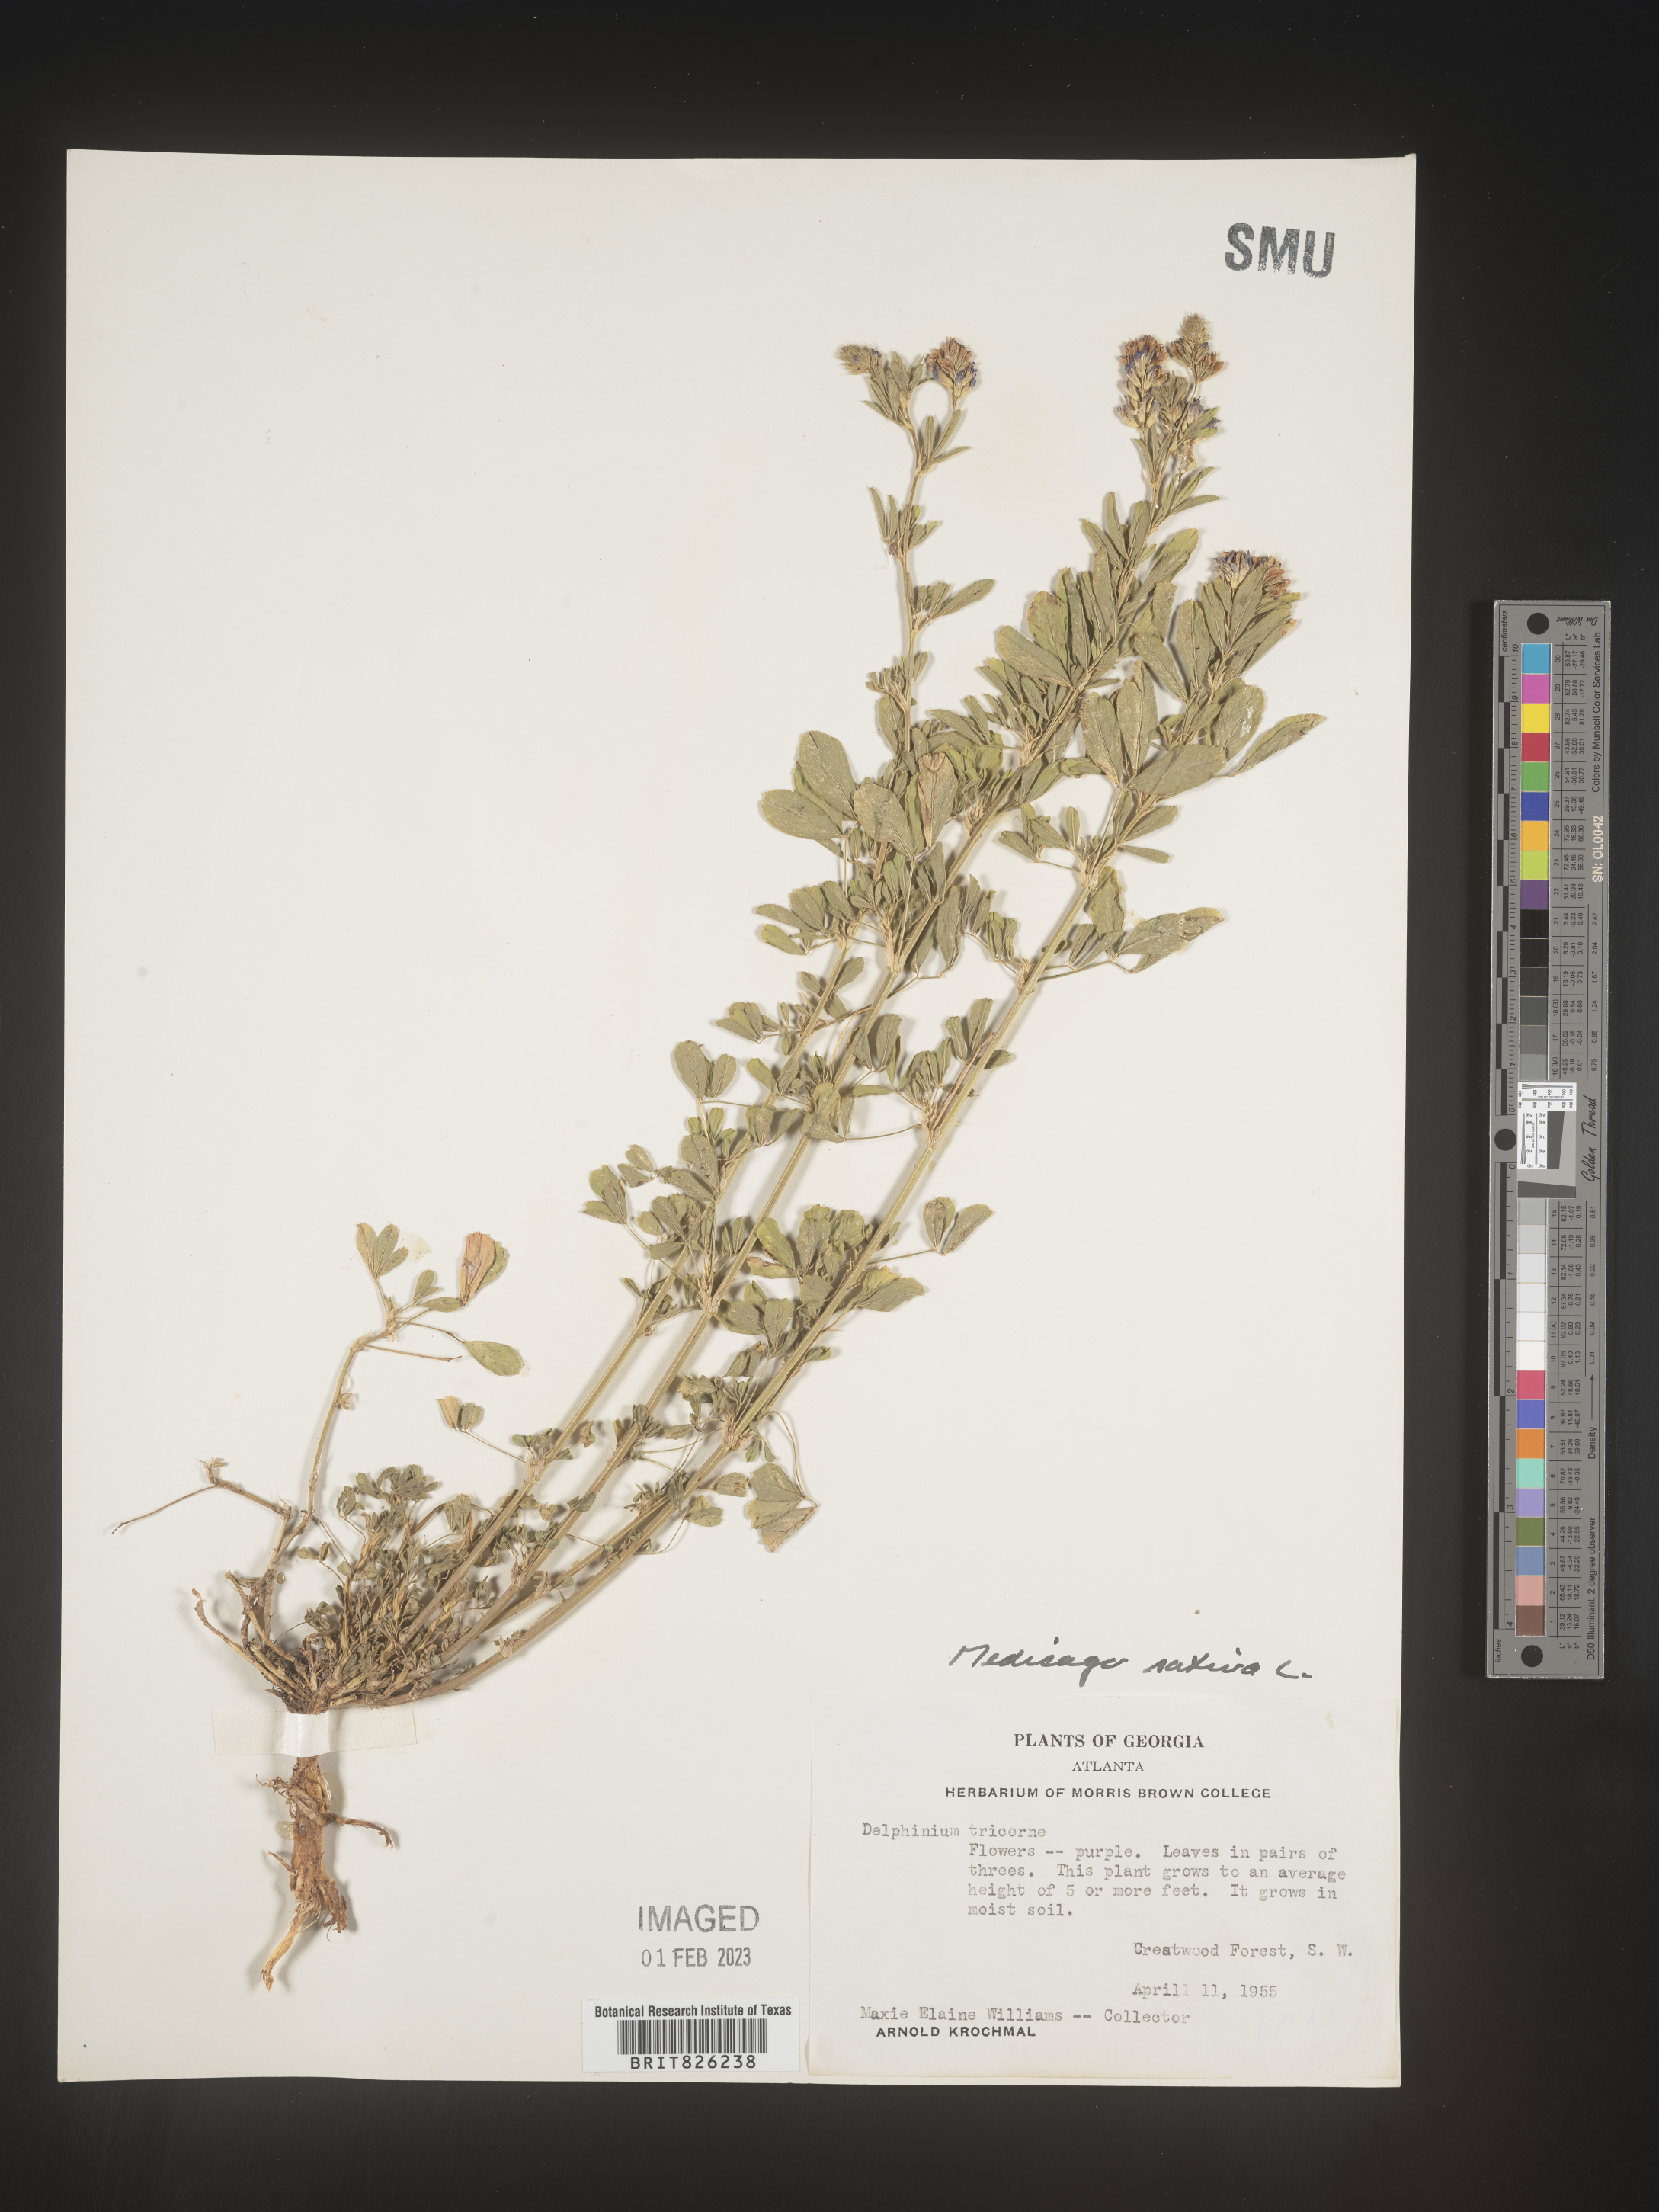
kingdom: Plantae
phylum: Tracheophyta
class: Magnoliopsida
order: Fabales
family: Fabaceae
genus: Medicago
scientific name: Medicago sativa
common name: Alfalfa
